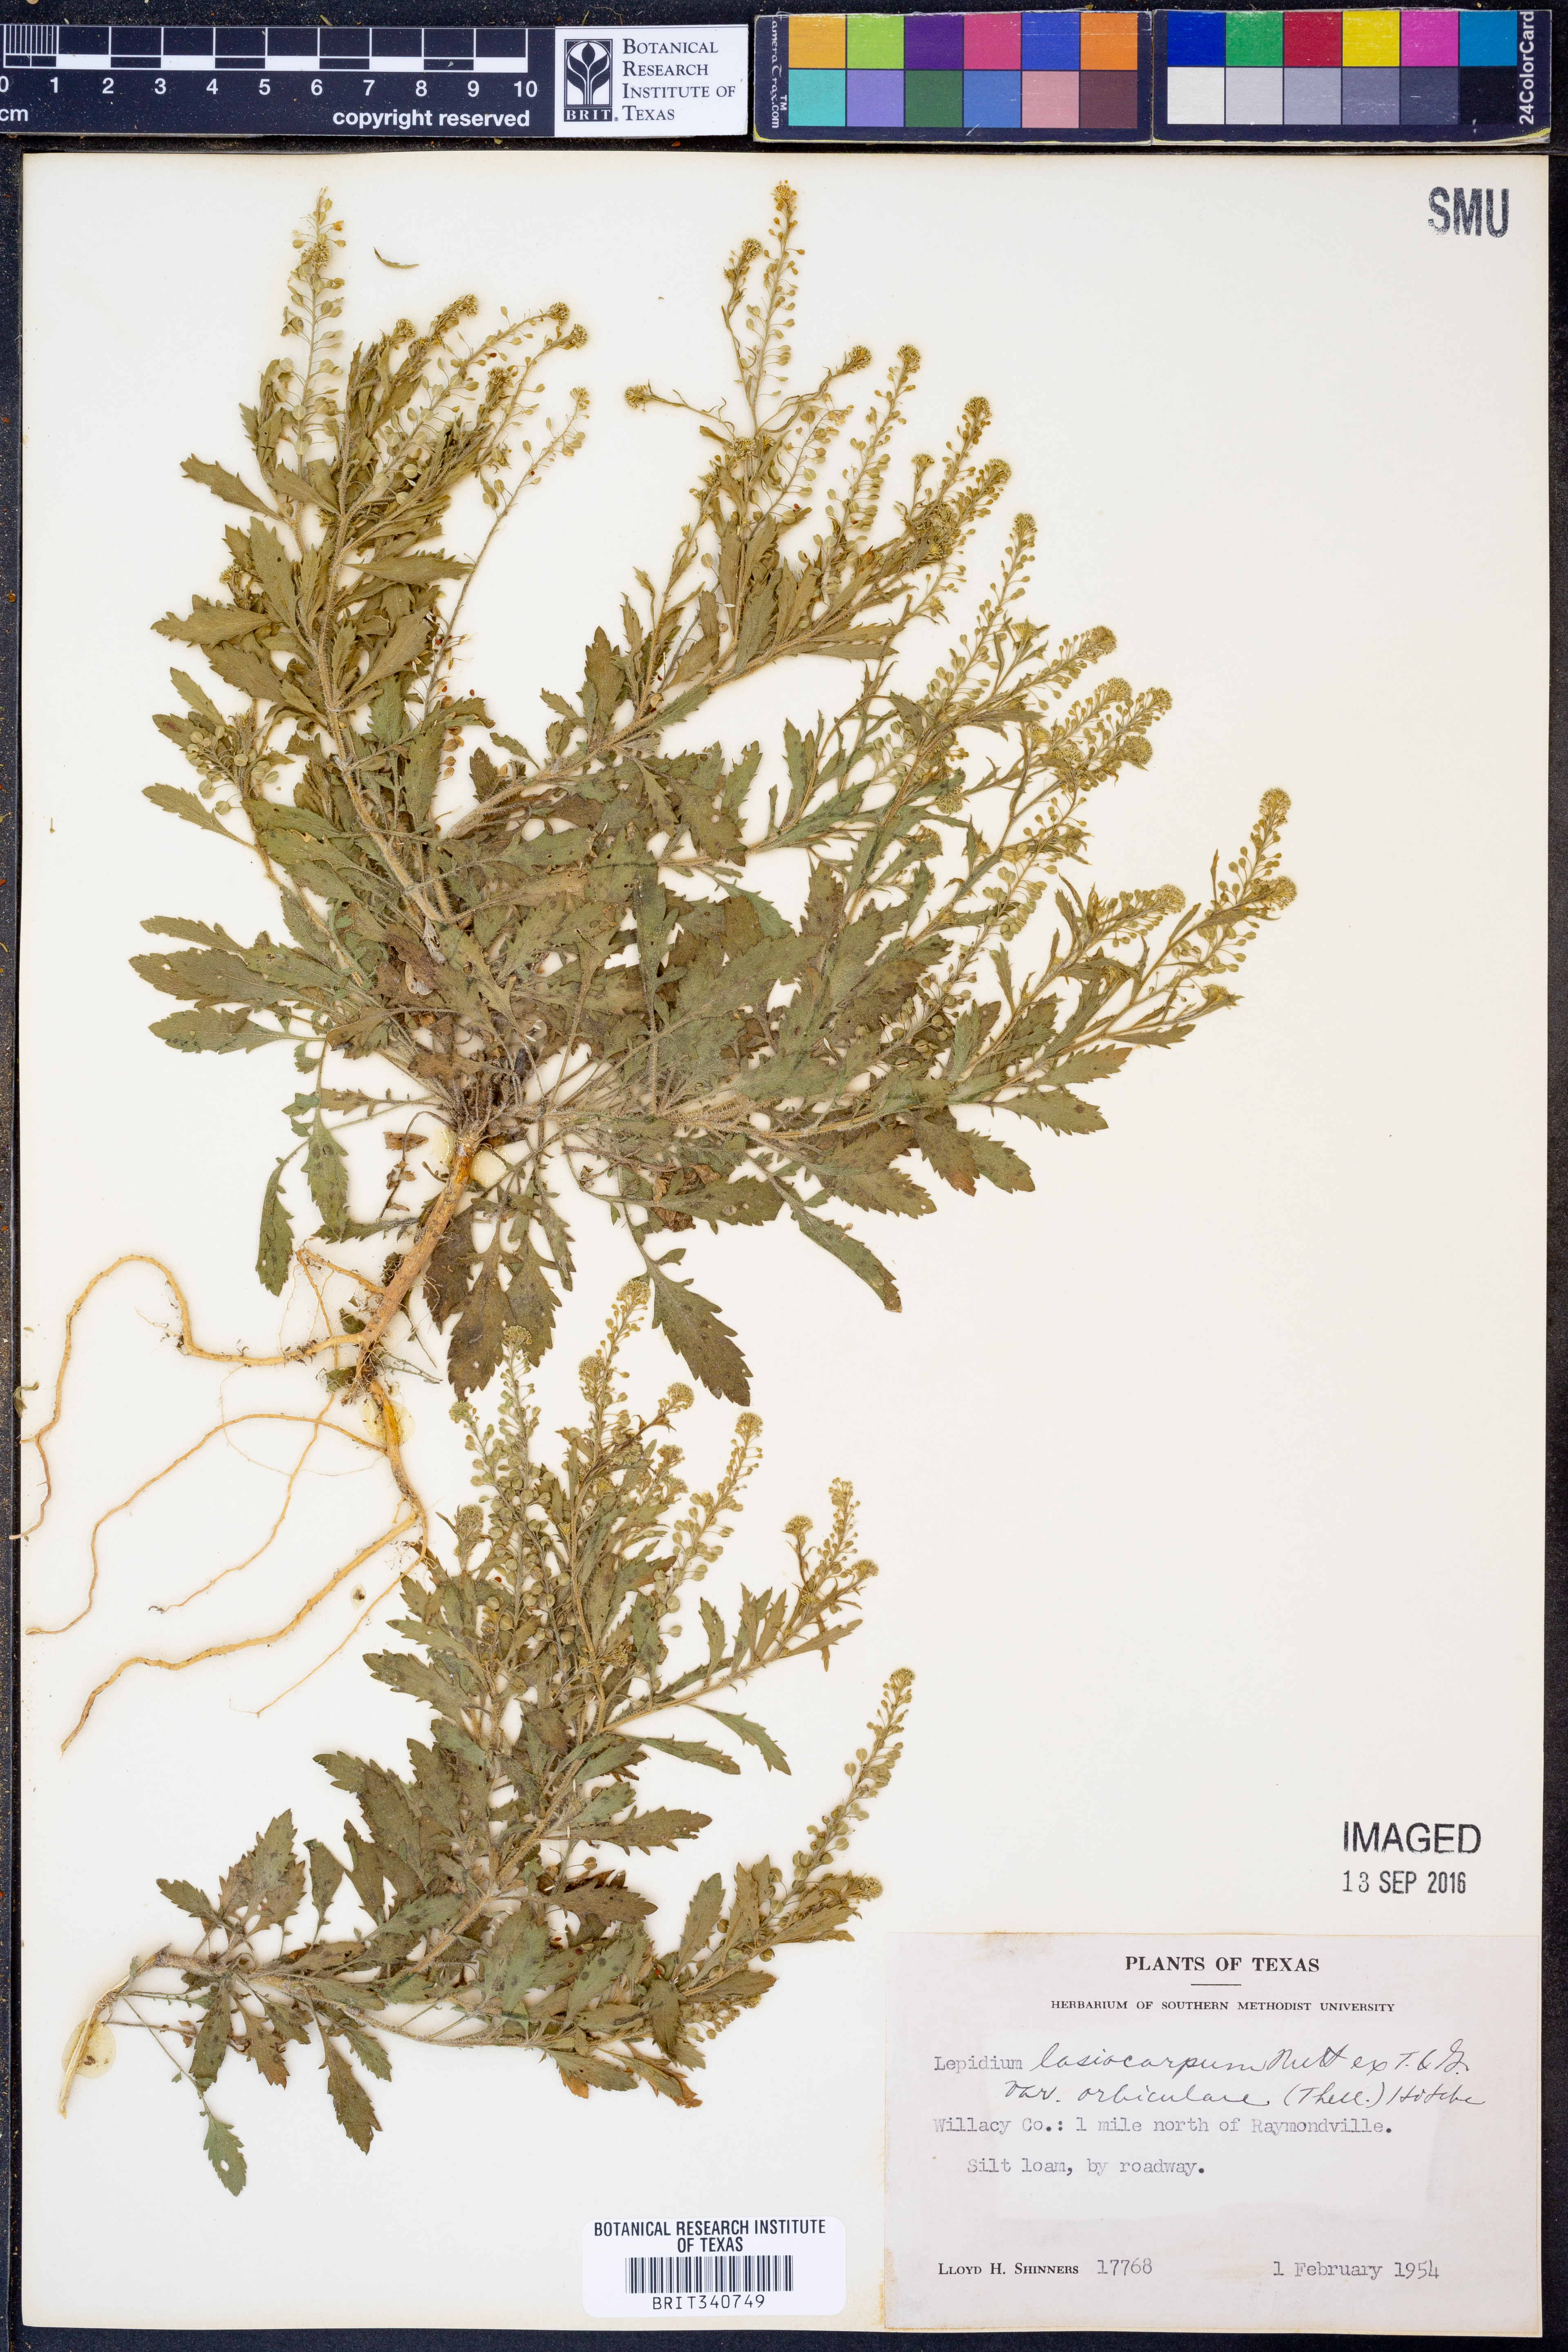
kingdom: Plantae
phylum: Tracheophyta
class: Magnoliopsida
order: Brassicales
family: Brassicaceae
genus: Lepidium
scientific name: Lepidium austrinum
